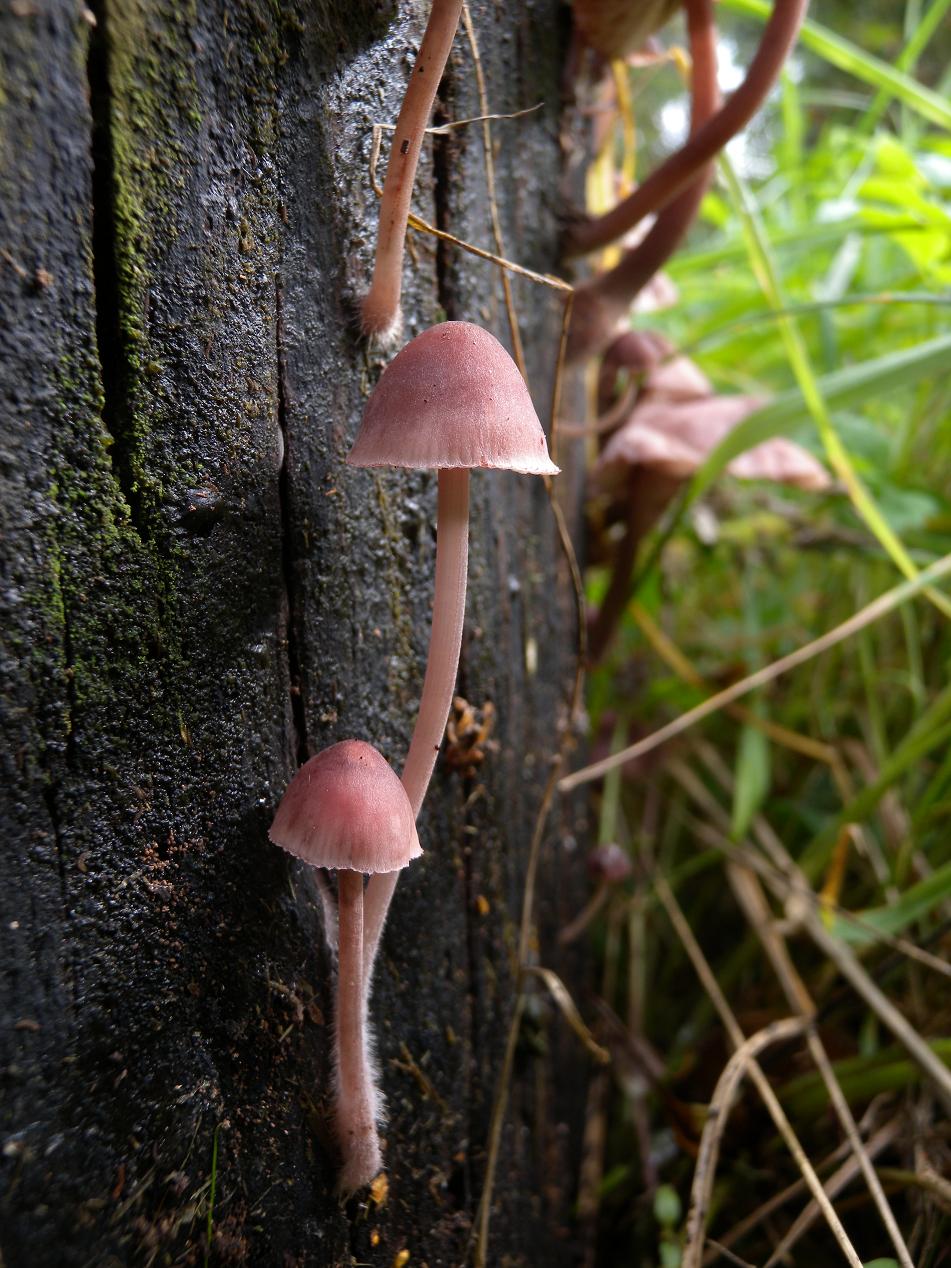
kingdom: Fungi
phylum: Basidiomycota
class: Agaricomycetes
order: Agaricales
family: Mycenaceae
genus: Mycena
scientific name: Mycena haematopus
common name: blødende huesvamp
